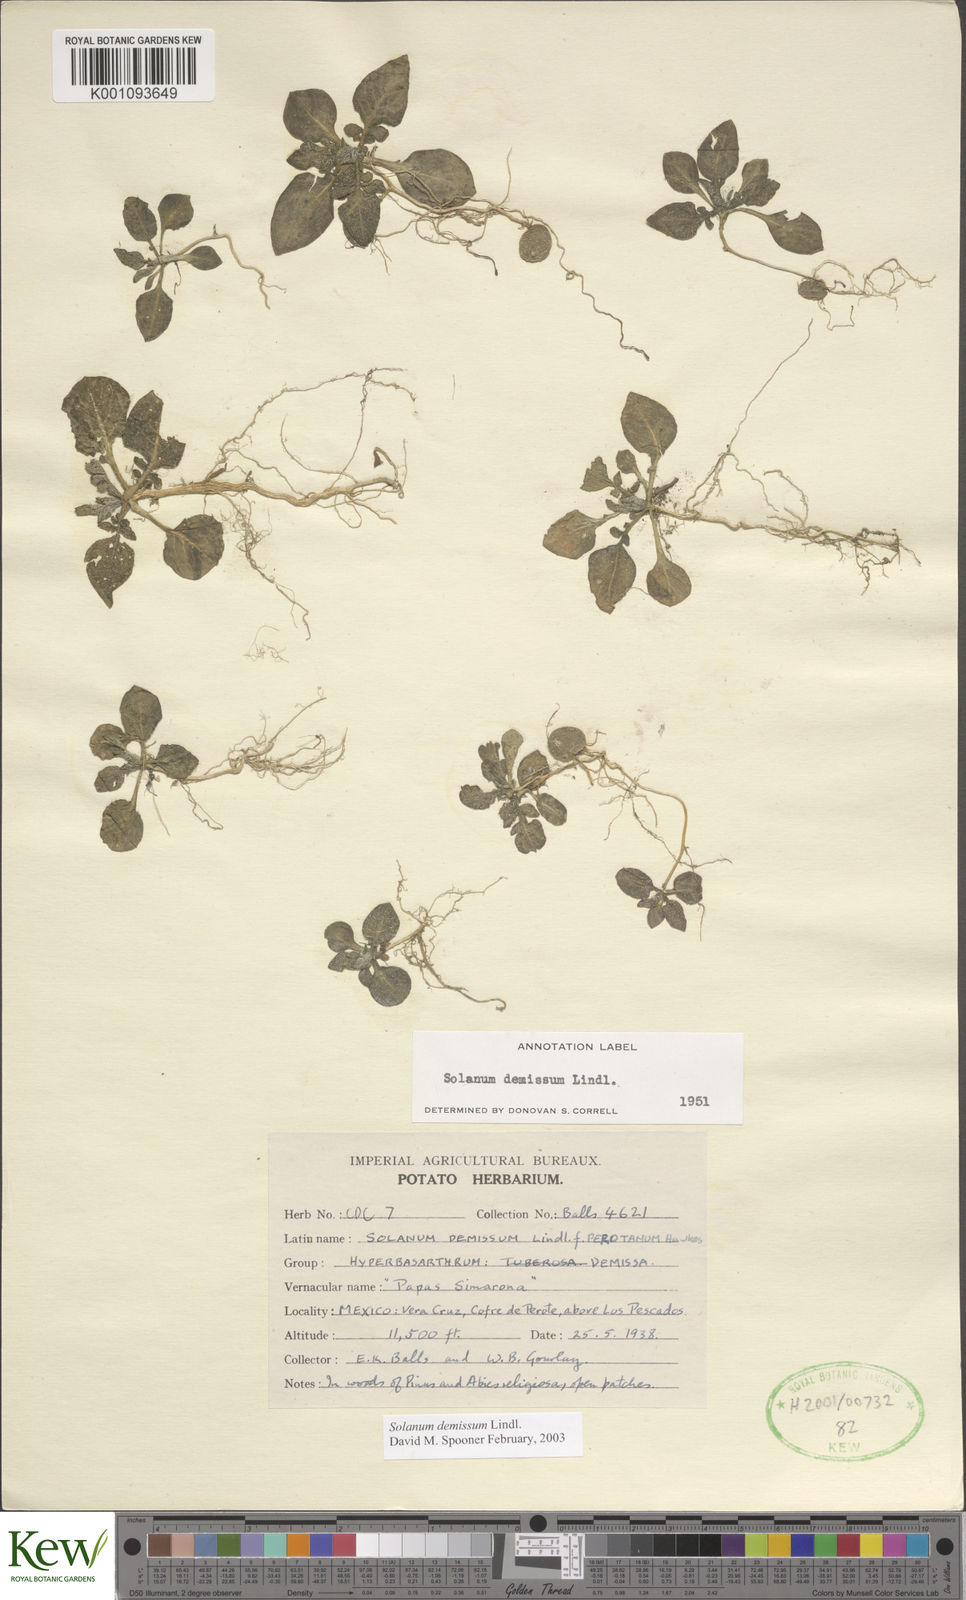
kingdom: Plantae
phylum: Tracheophyta
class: Magnoliopsida
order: Solanales
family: Solanaceae
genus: Solanum
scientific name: Solanum demissum
